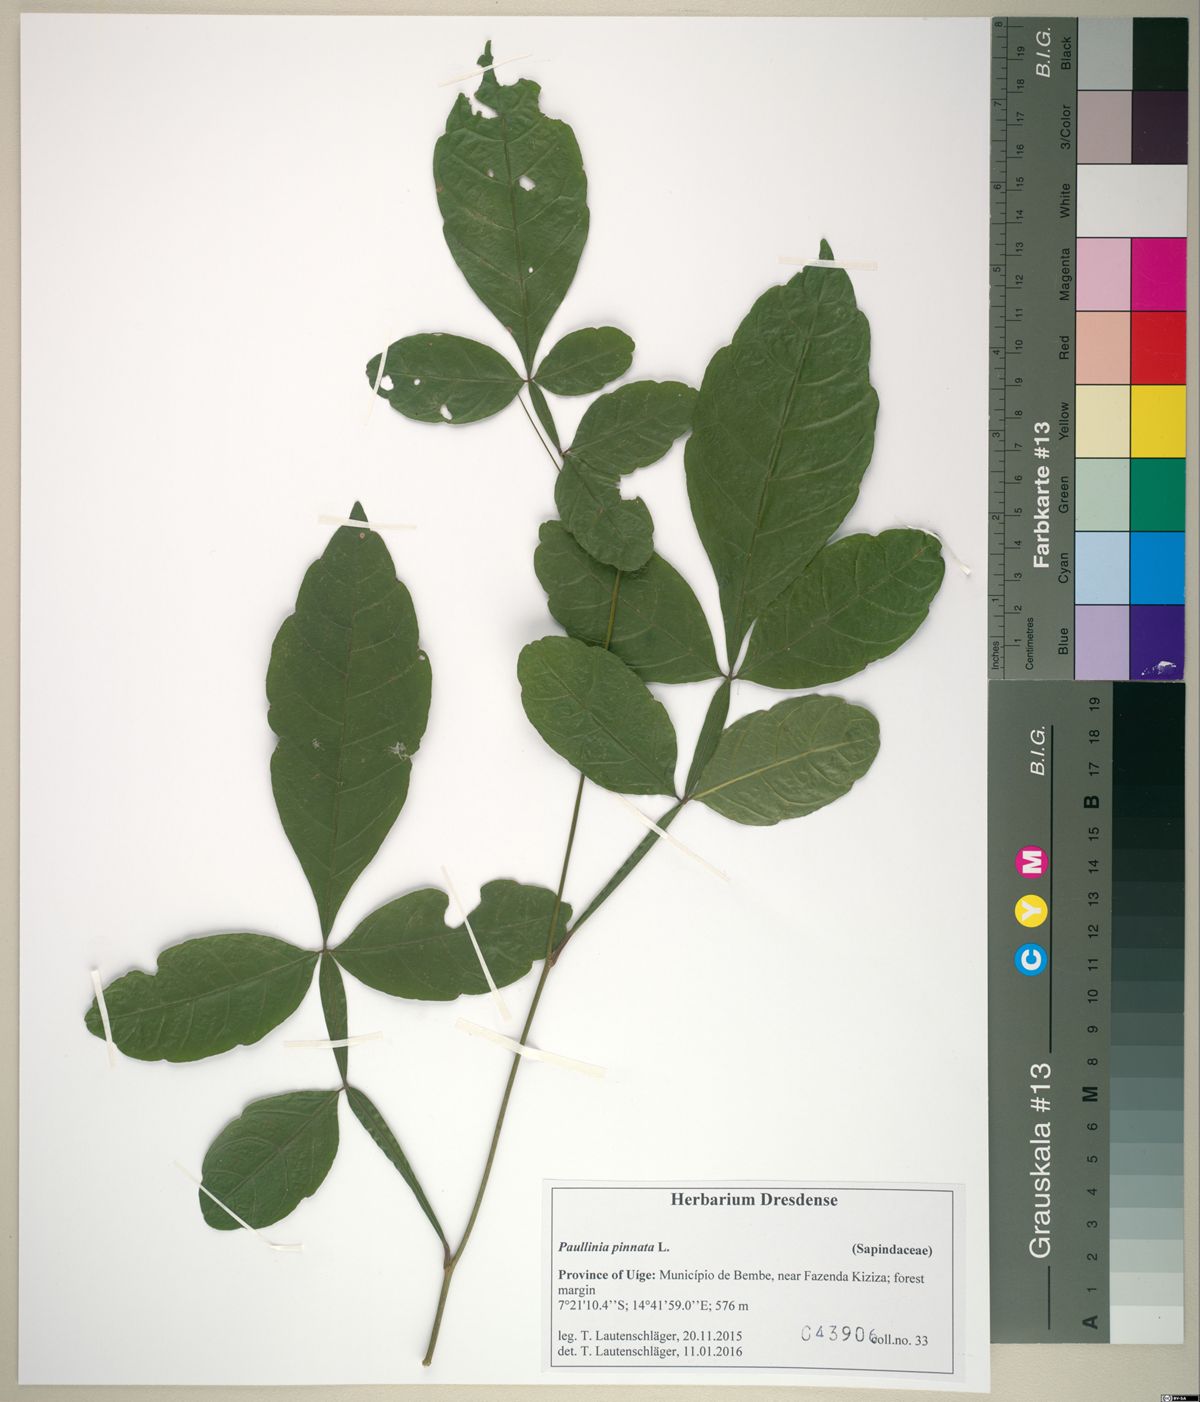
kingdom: Plantae
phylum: Tracheophyta
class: Magnoliopsida
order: Sapindales
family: Sapindaceae
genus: Paullinia
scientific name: Paullinia pinnata
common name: Barbasco
